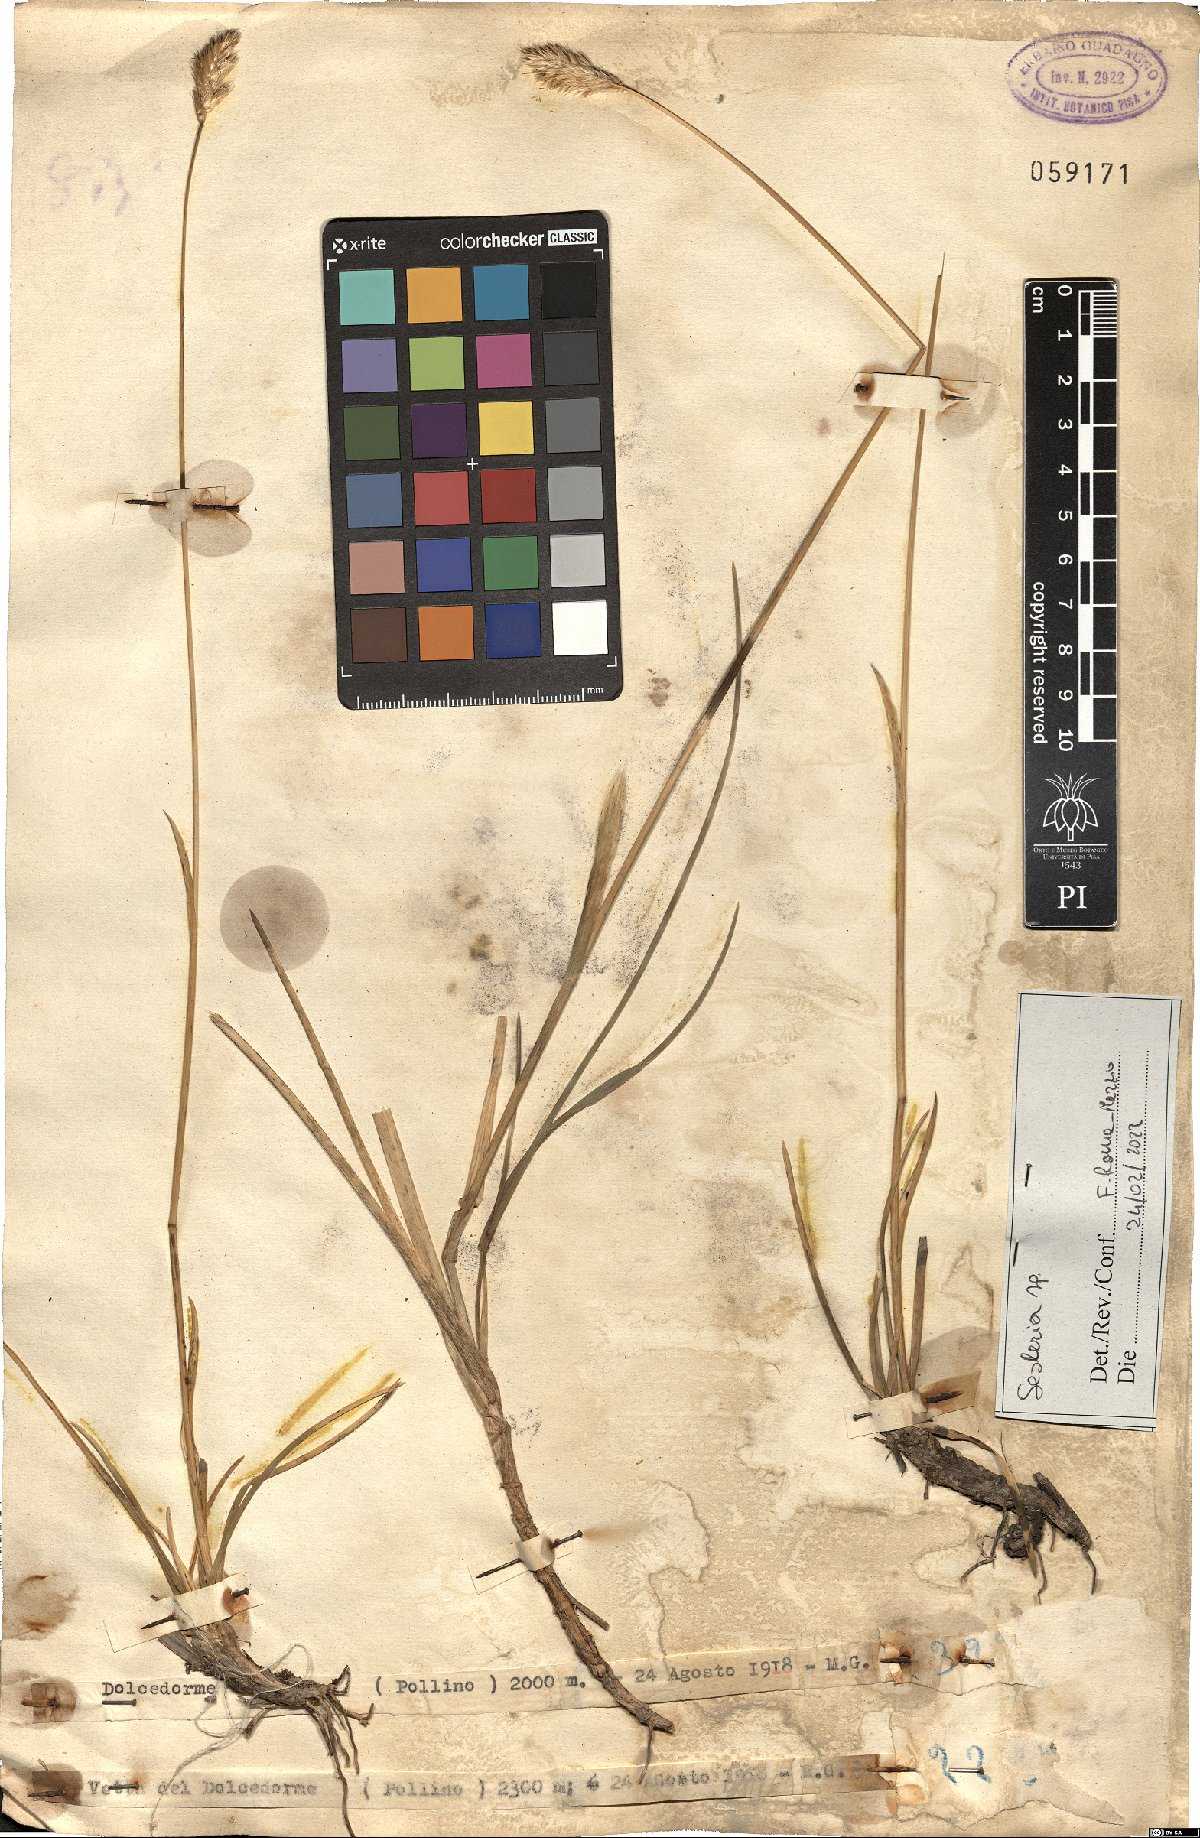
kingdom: Plantae
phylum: Tracheophyta
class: Liliopsida
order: Poales
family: Poaceae
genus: Sesleria
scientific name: Sesleria
